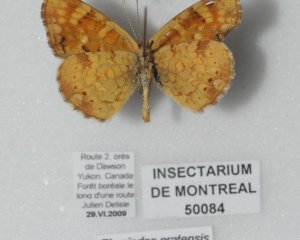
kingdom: Animalia
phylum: Arthropoda
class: Insecta
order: Lepidoptera
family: Nymphalidae
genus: Phyciodes
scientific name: Phyciodes tharos
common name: Field Crescent
